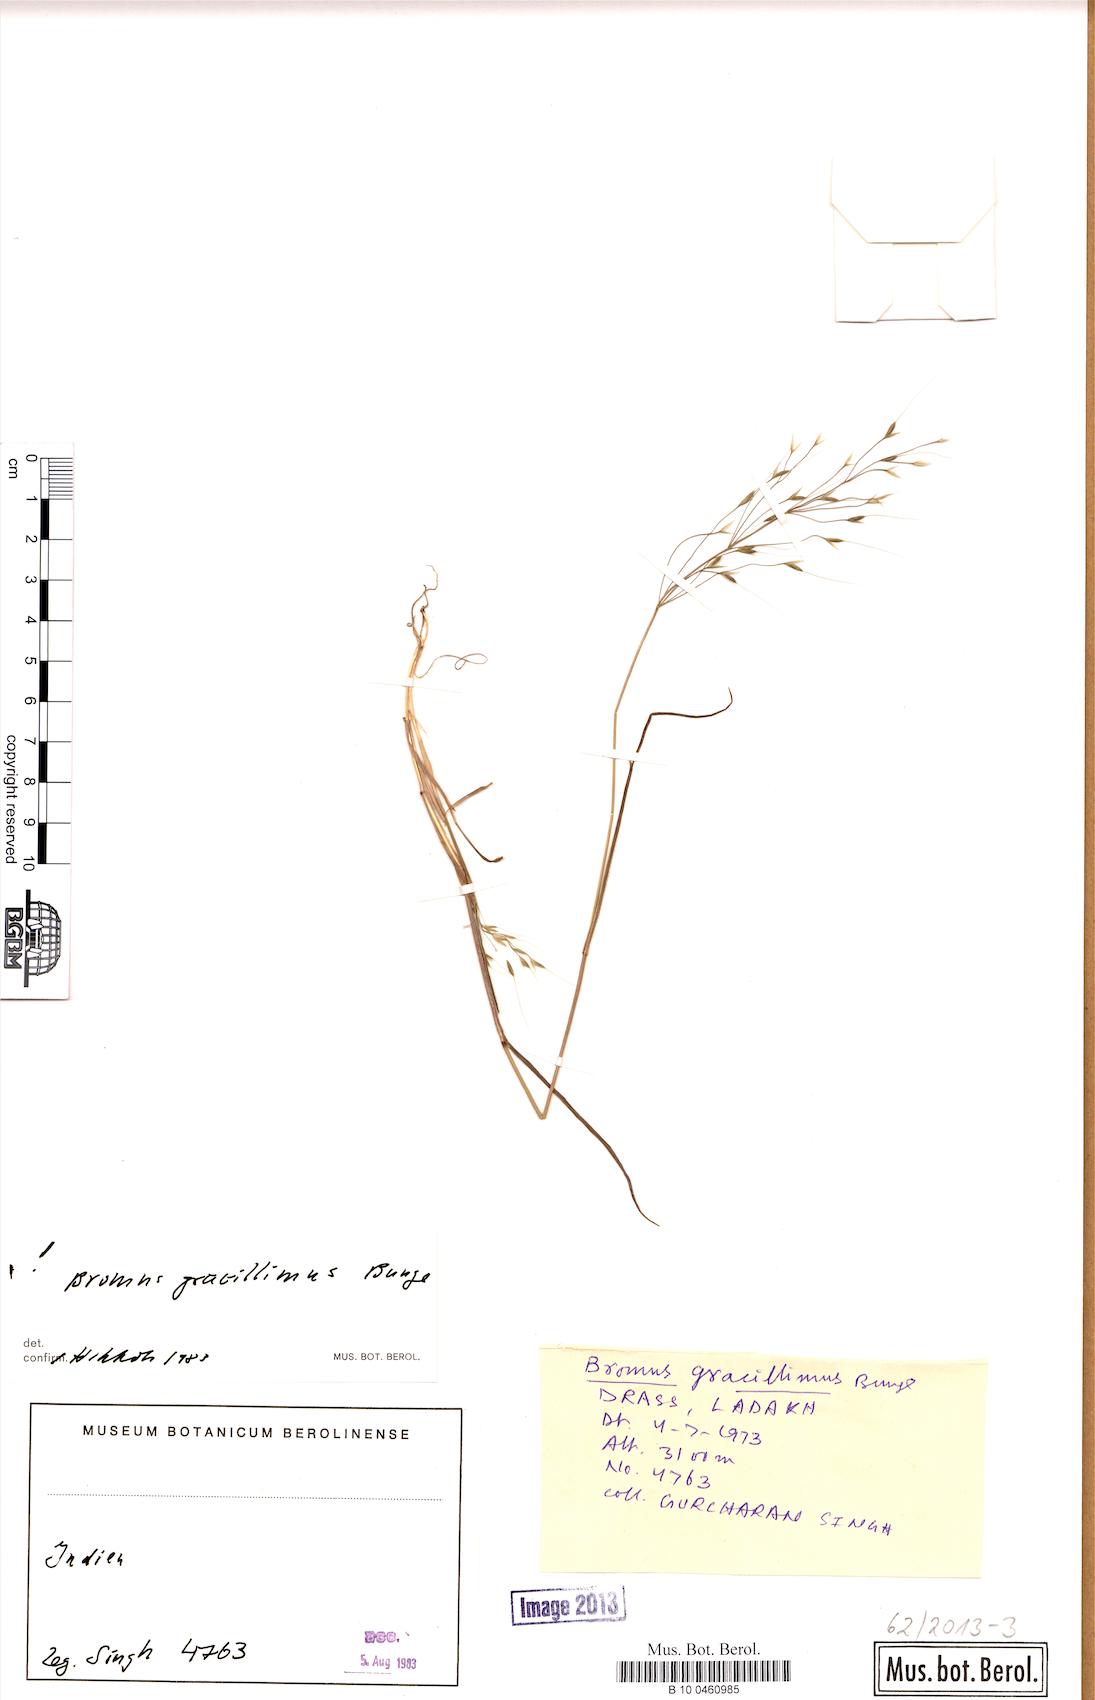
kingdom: Plantae
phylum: Tracheophyta
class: Liliopsida
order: Poales
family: Poaceae
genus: Bromus
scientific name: Bromus gracillimus
